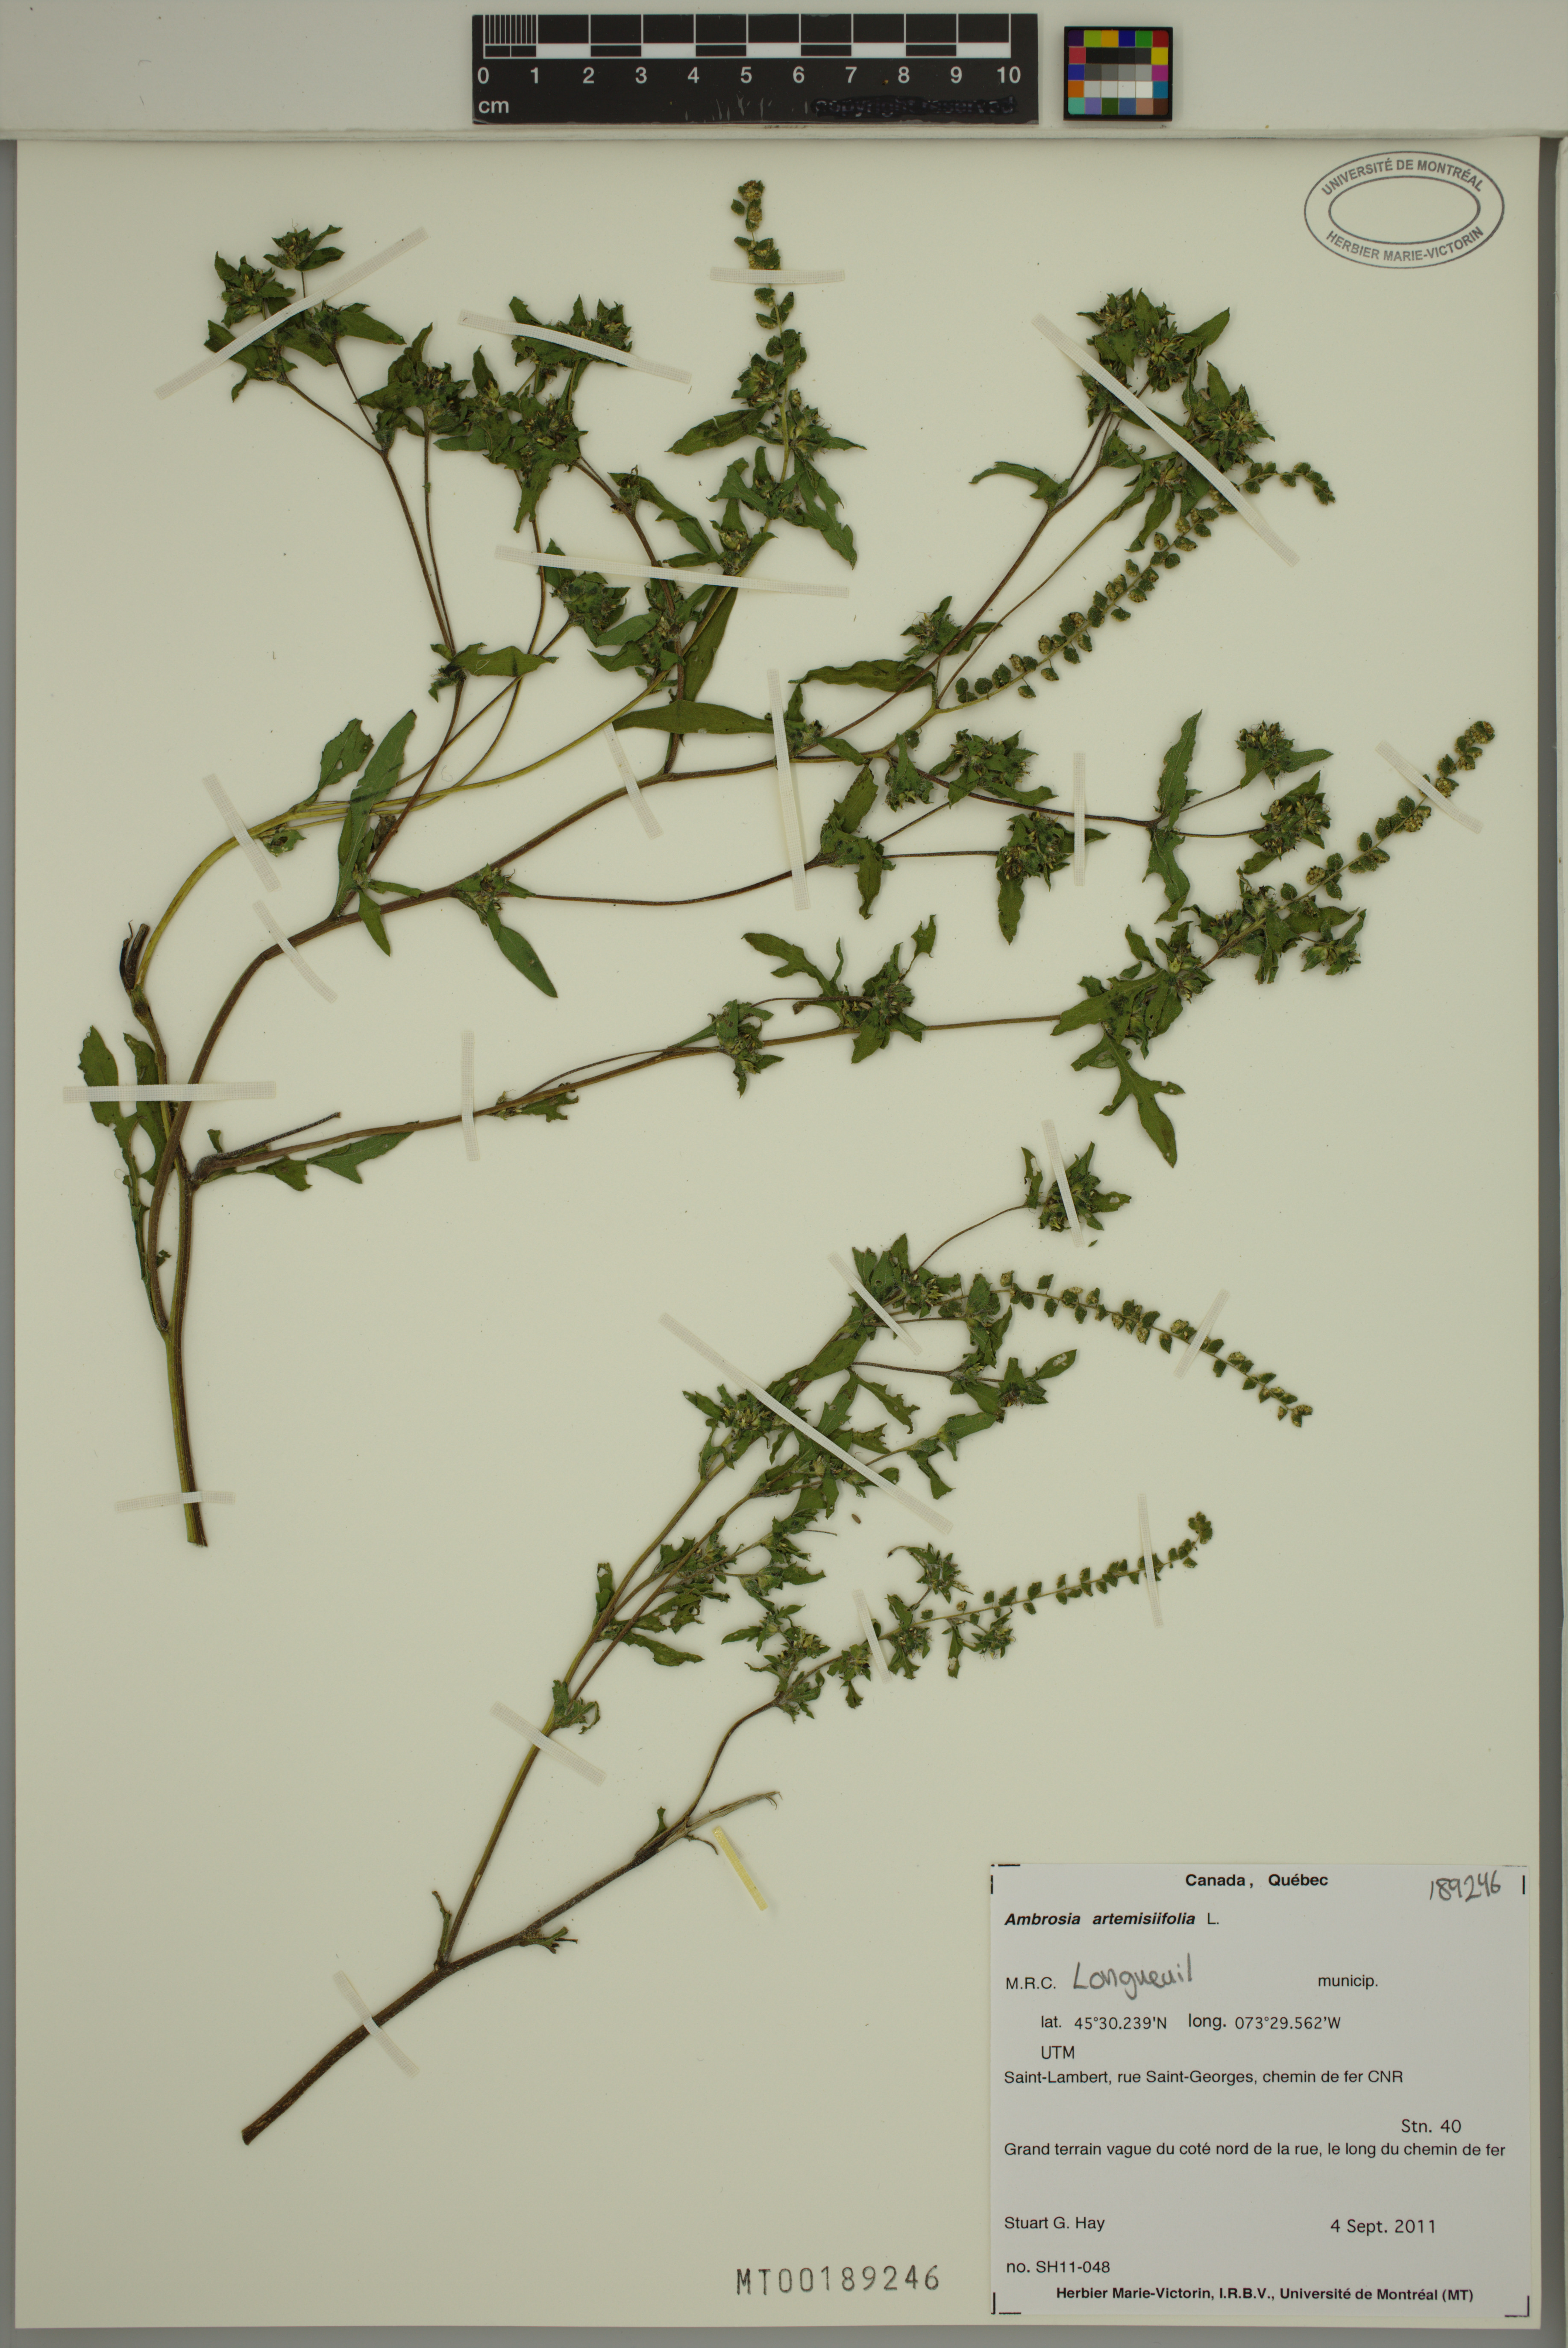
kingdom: Plantae
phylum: Tracheophyta
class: Magnoliopsida
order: Asterales
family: Asteraceae
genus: Ambrosia
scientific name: Ambrosia artemisiifolia
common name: Annual ragweed
